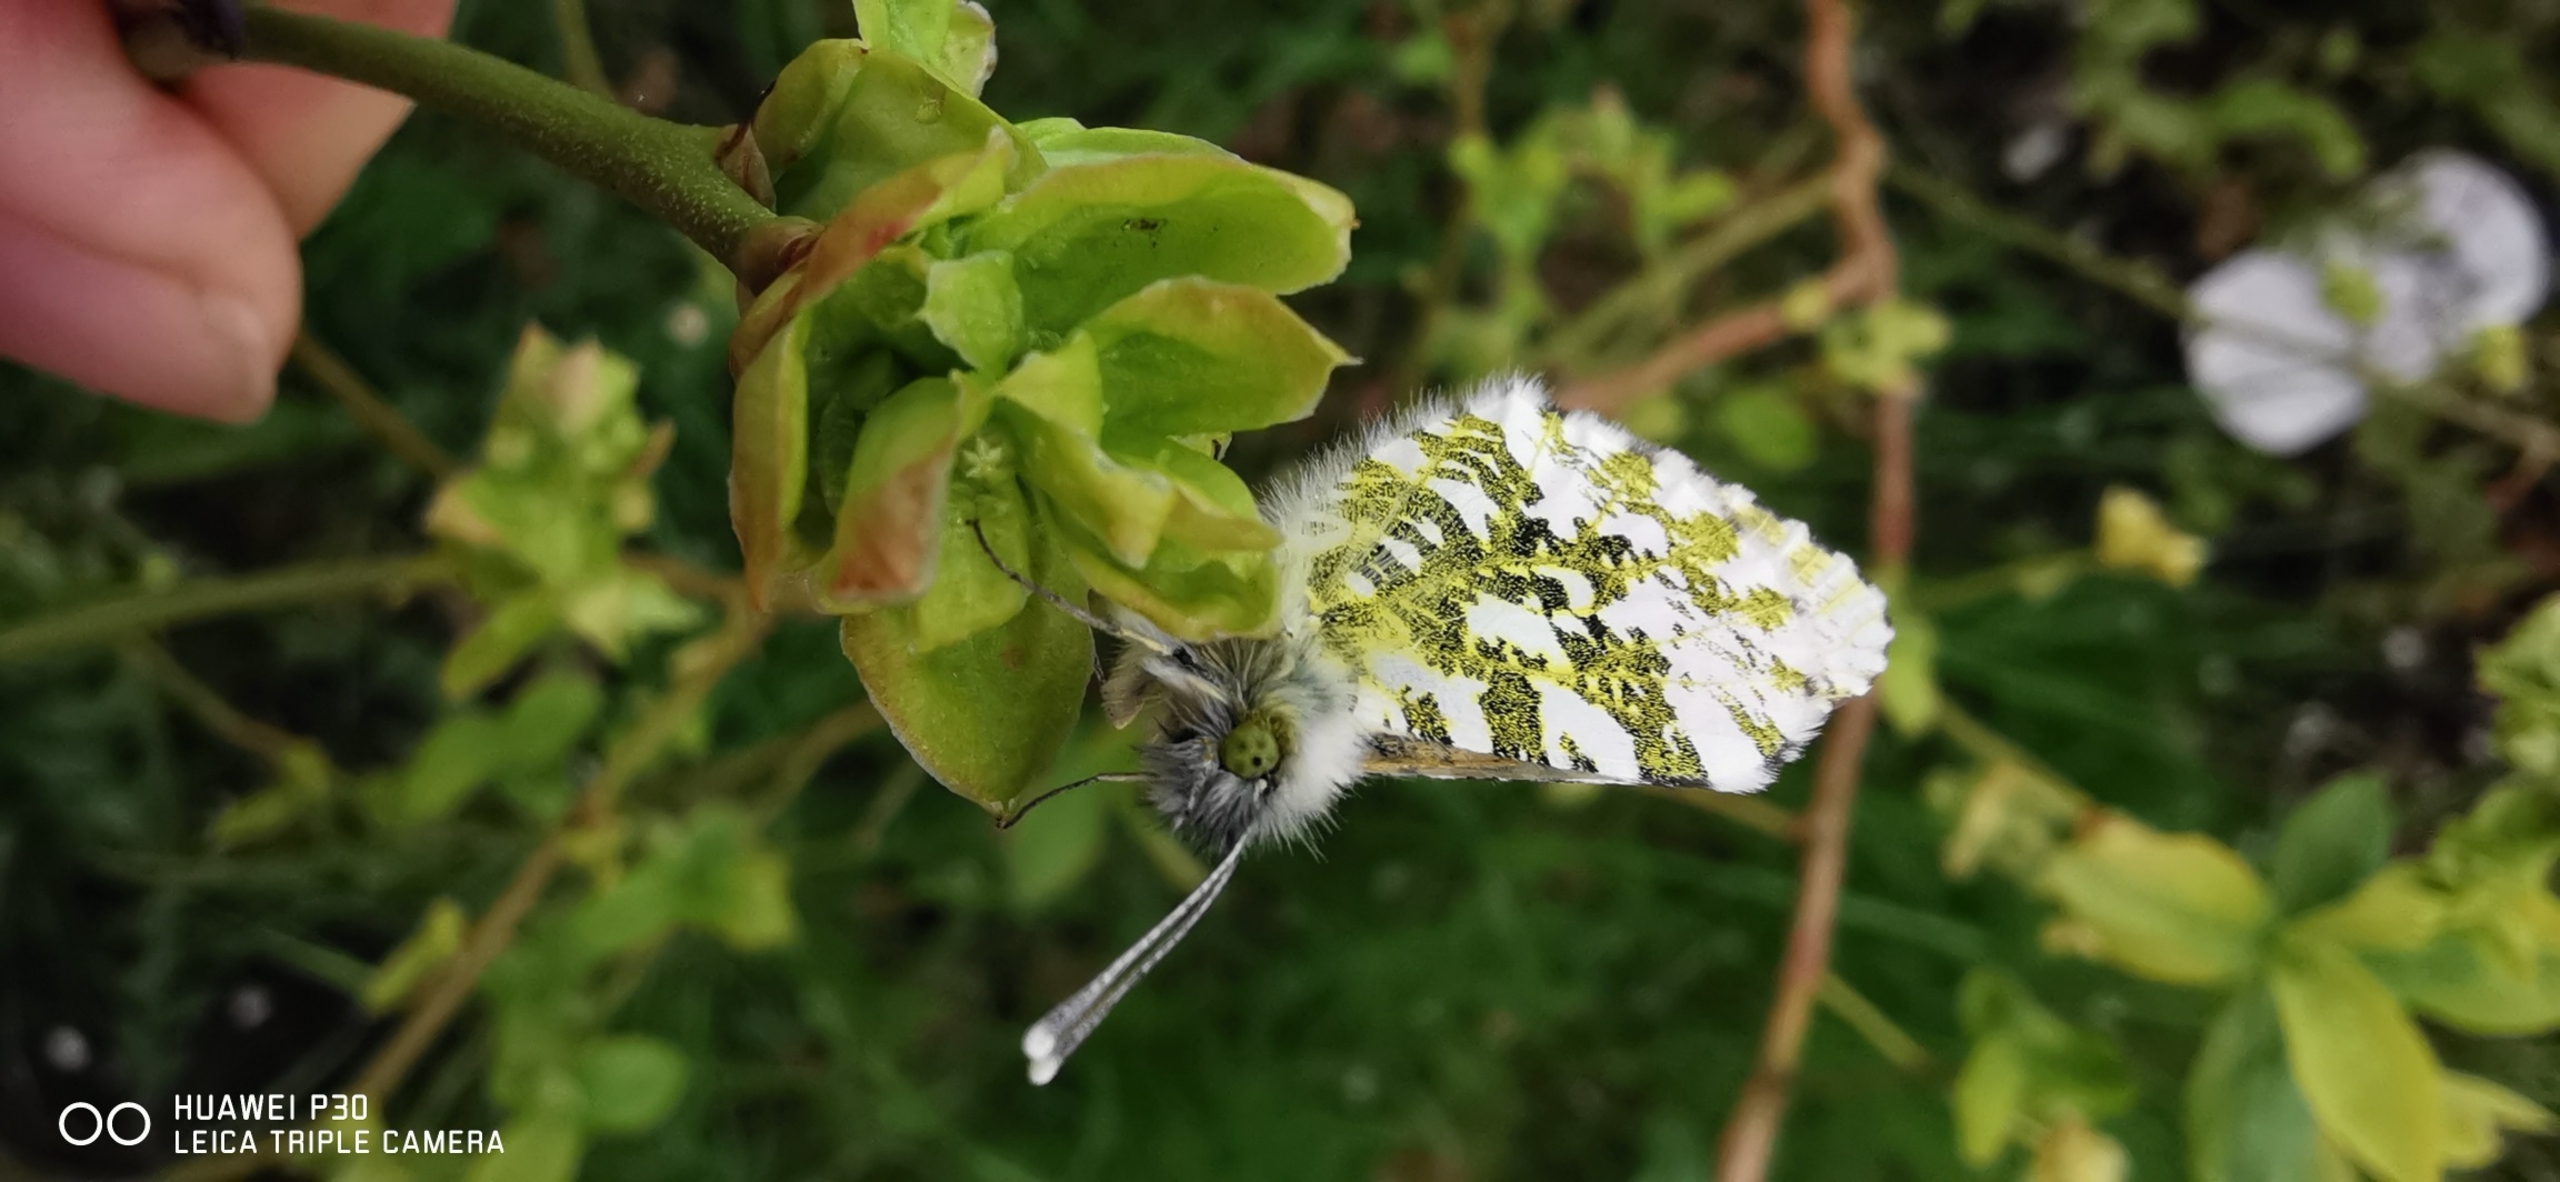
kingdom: Animalia
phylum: Arthropoda
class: Insecta
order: Lepidoptera
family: Pieridae
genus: Anthocharis
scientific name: Anthocharis cardamines
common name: Aurora
